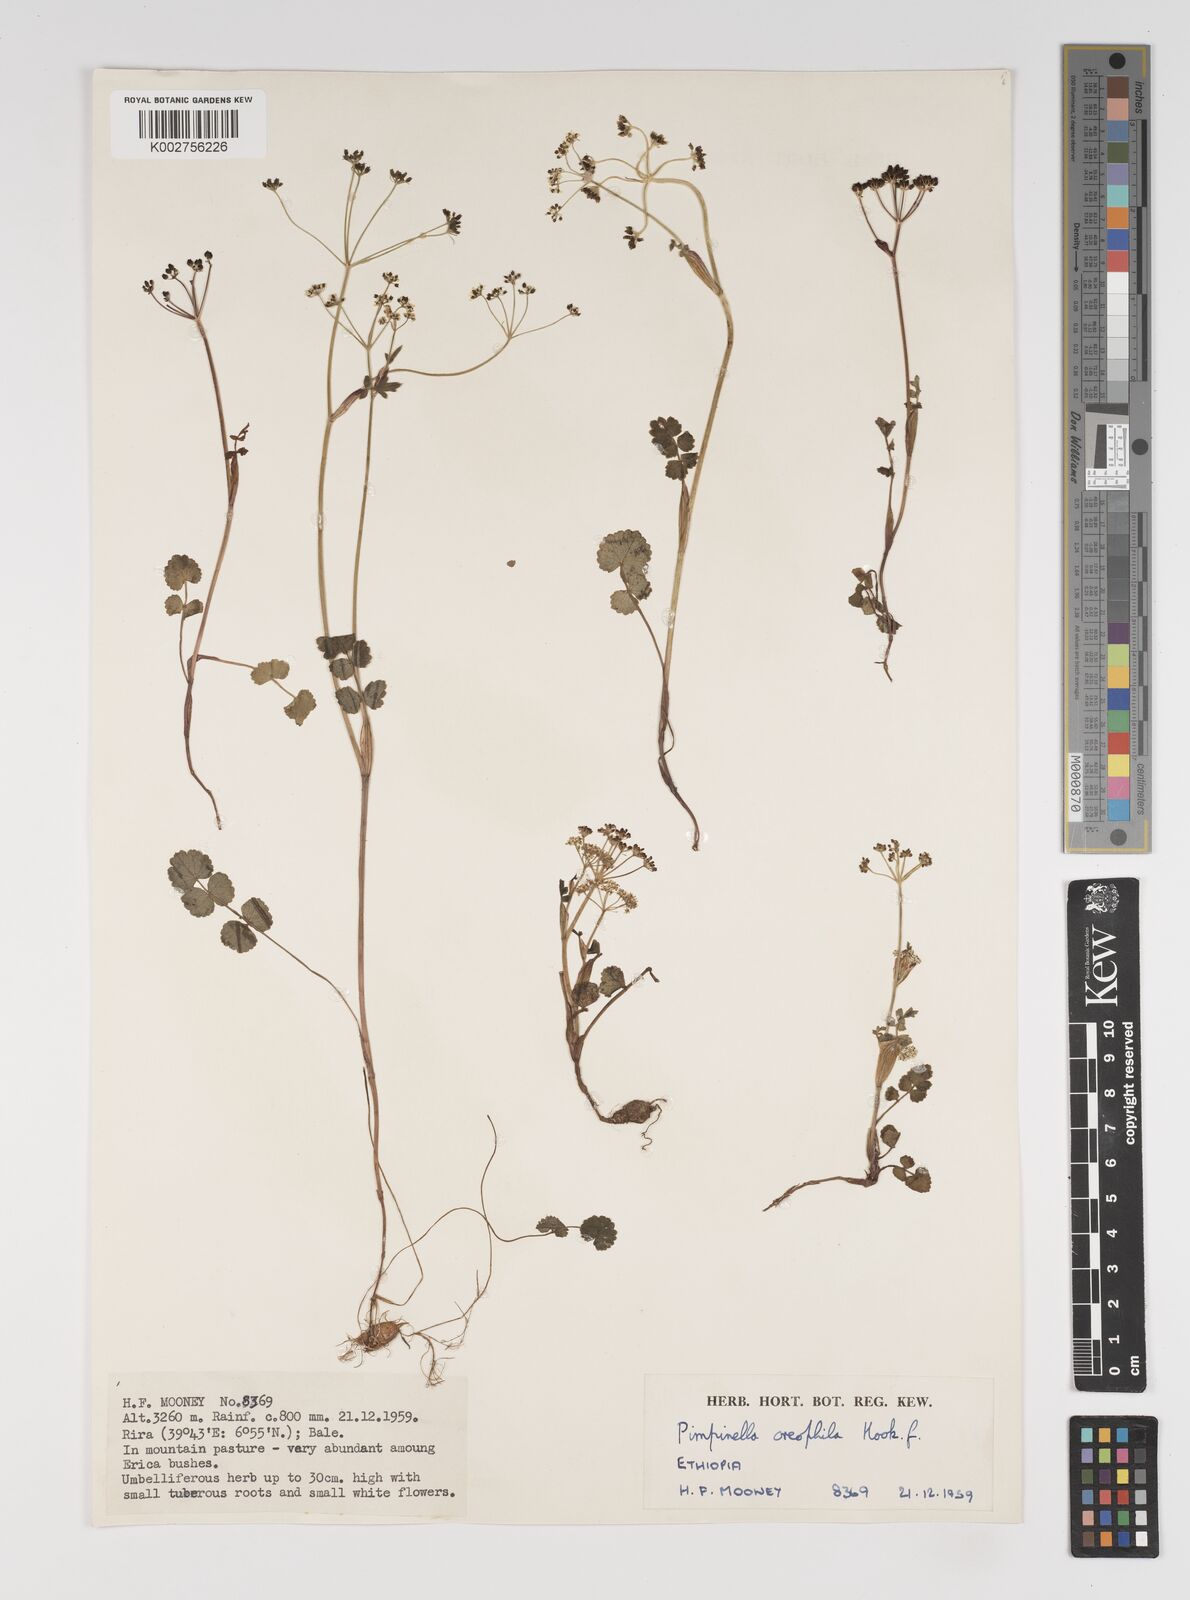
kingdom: Plantae
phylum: Tracheophyta
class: Magnoliopsida
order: Apiales
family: Apiaceae
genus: Pimpinella
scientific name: Pimpinella oreophila
